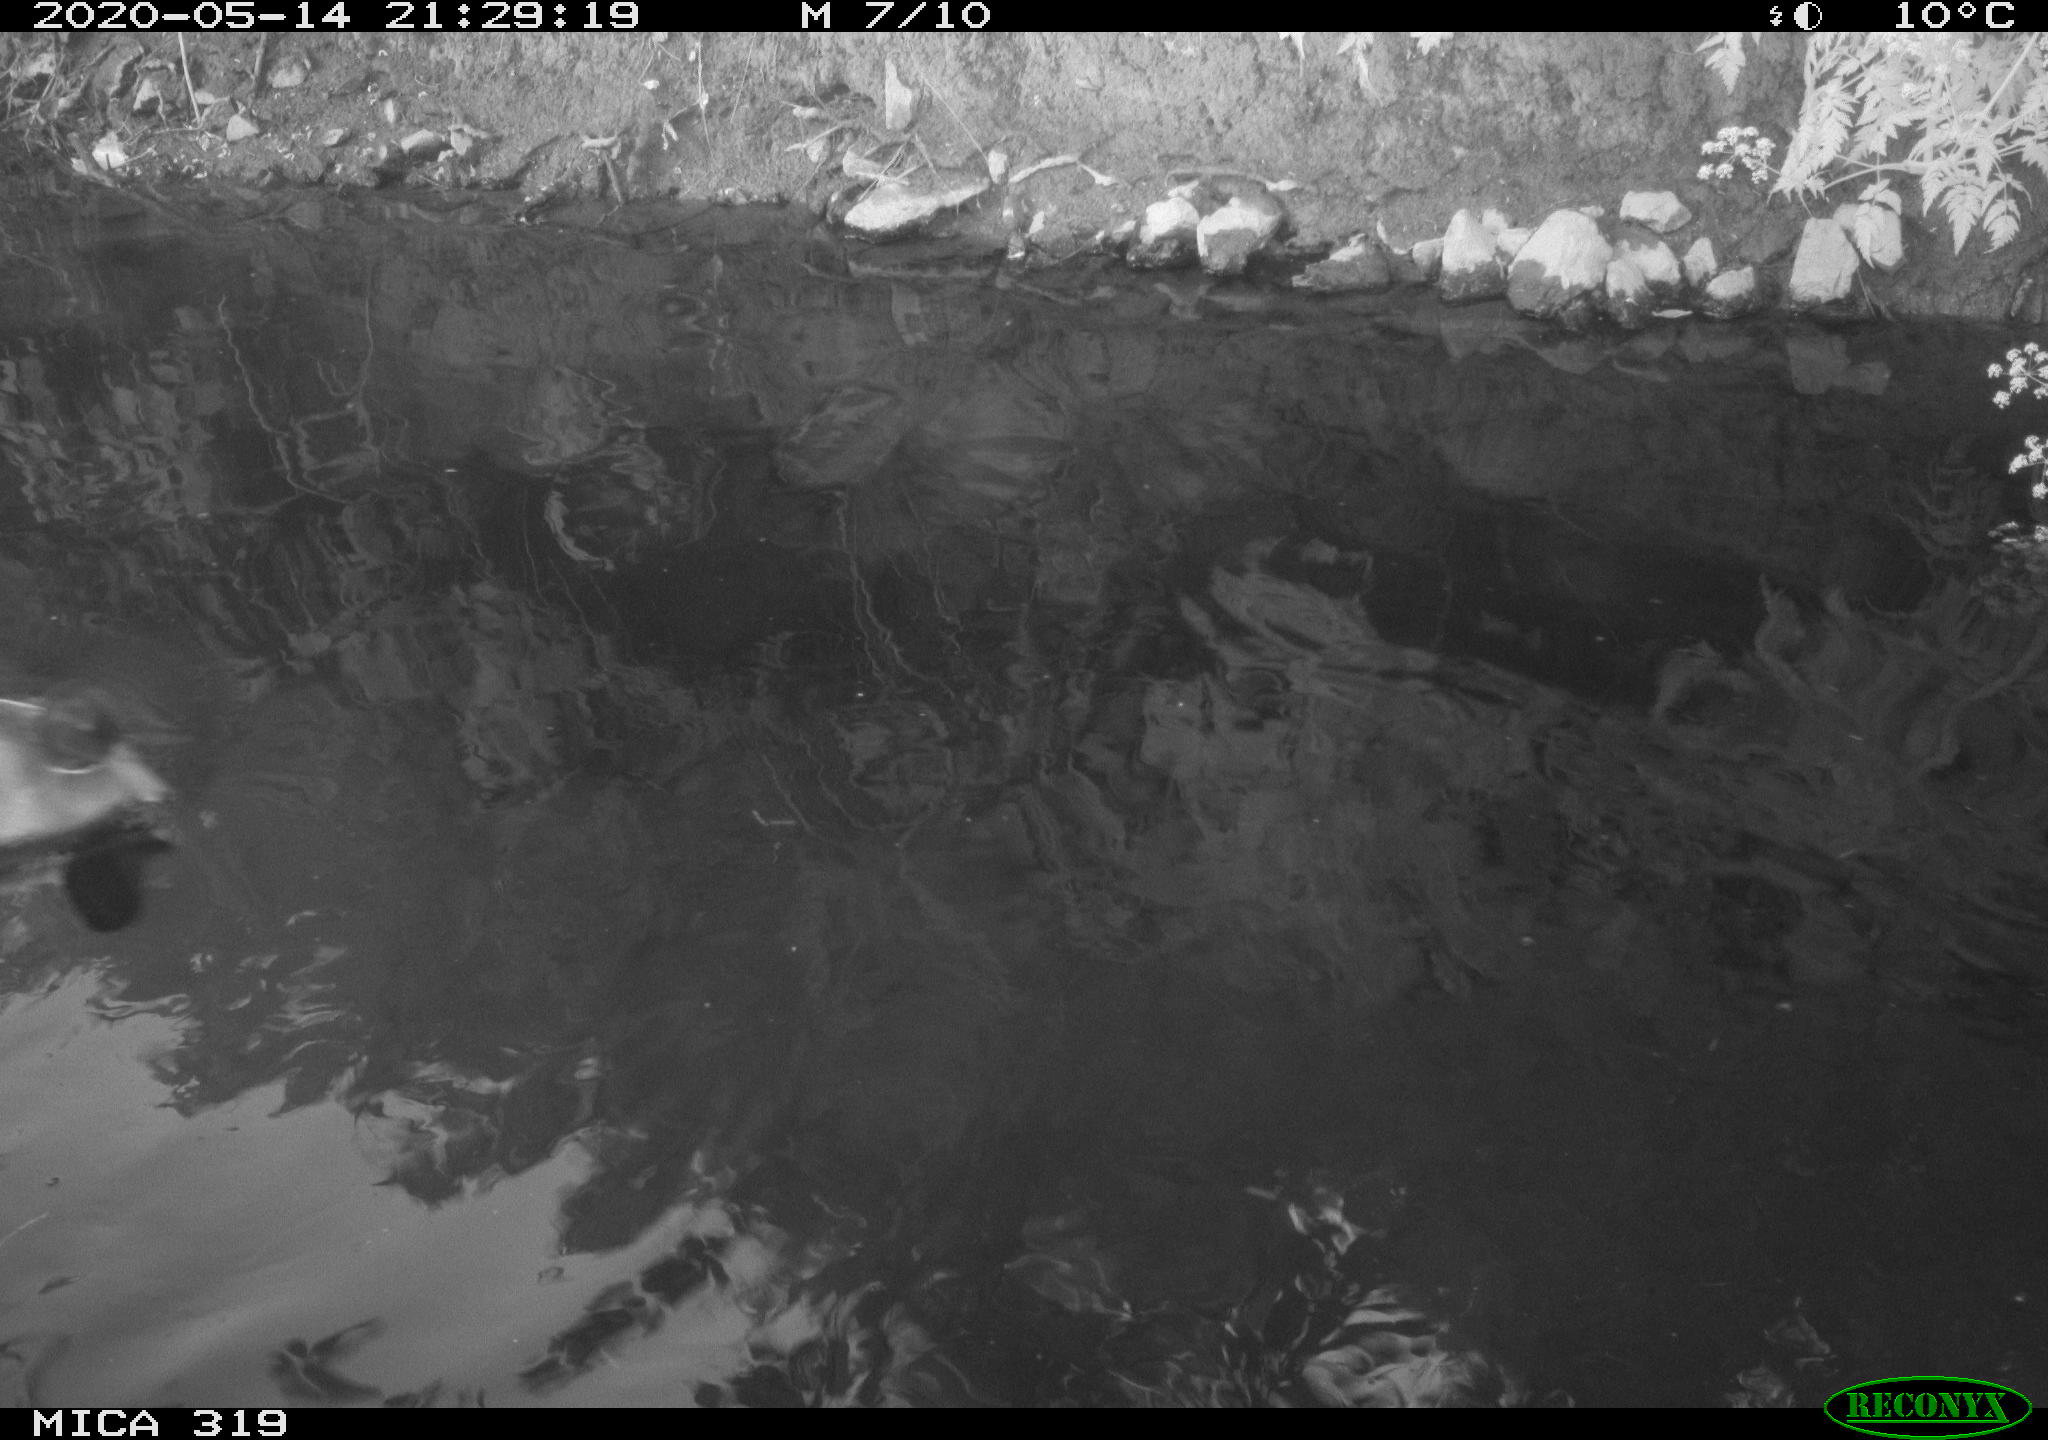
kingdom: Animalia
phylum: Chordata
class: Aves
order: Anseriformes
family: Anatidae
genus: Anas
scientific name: Anas platyrhynchos
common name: Mallard
